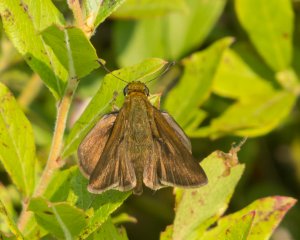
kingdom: Animalia
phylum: Arthropoda
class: Insecta
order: Lepidoptera
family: Hesperiidae
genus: Euphyes
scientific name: Euphyes vestris
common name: Dun Skipper
